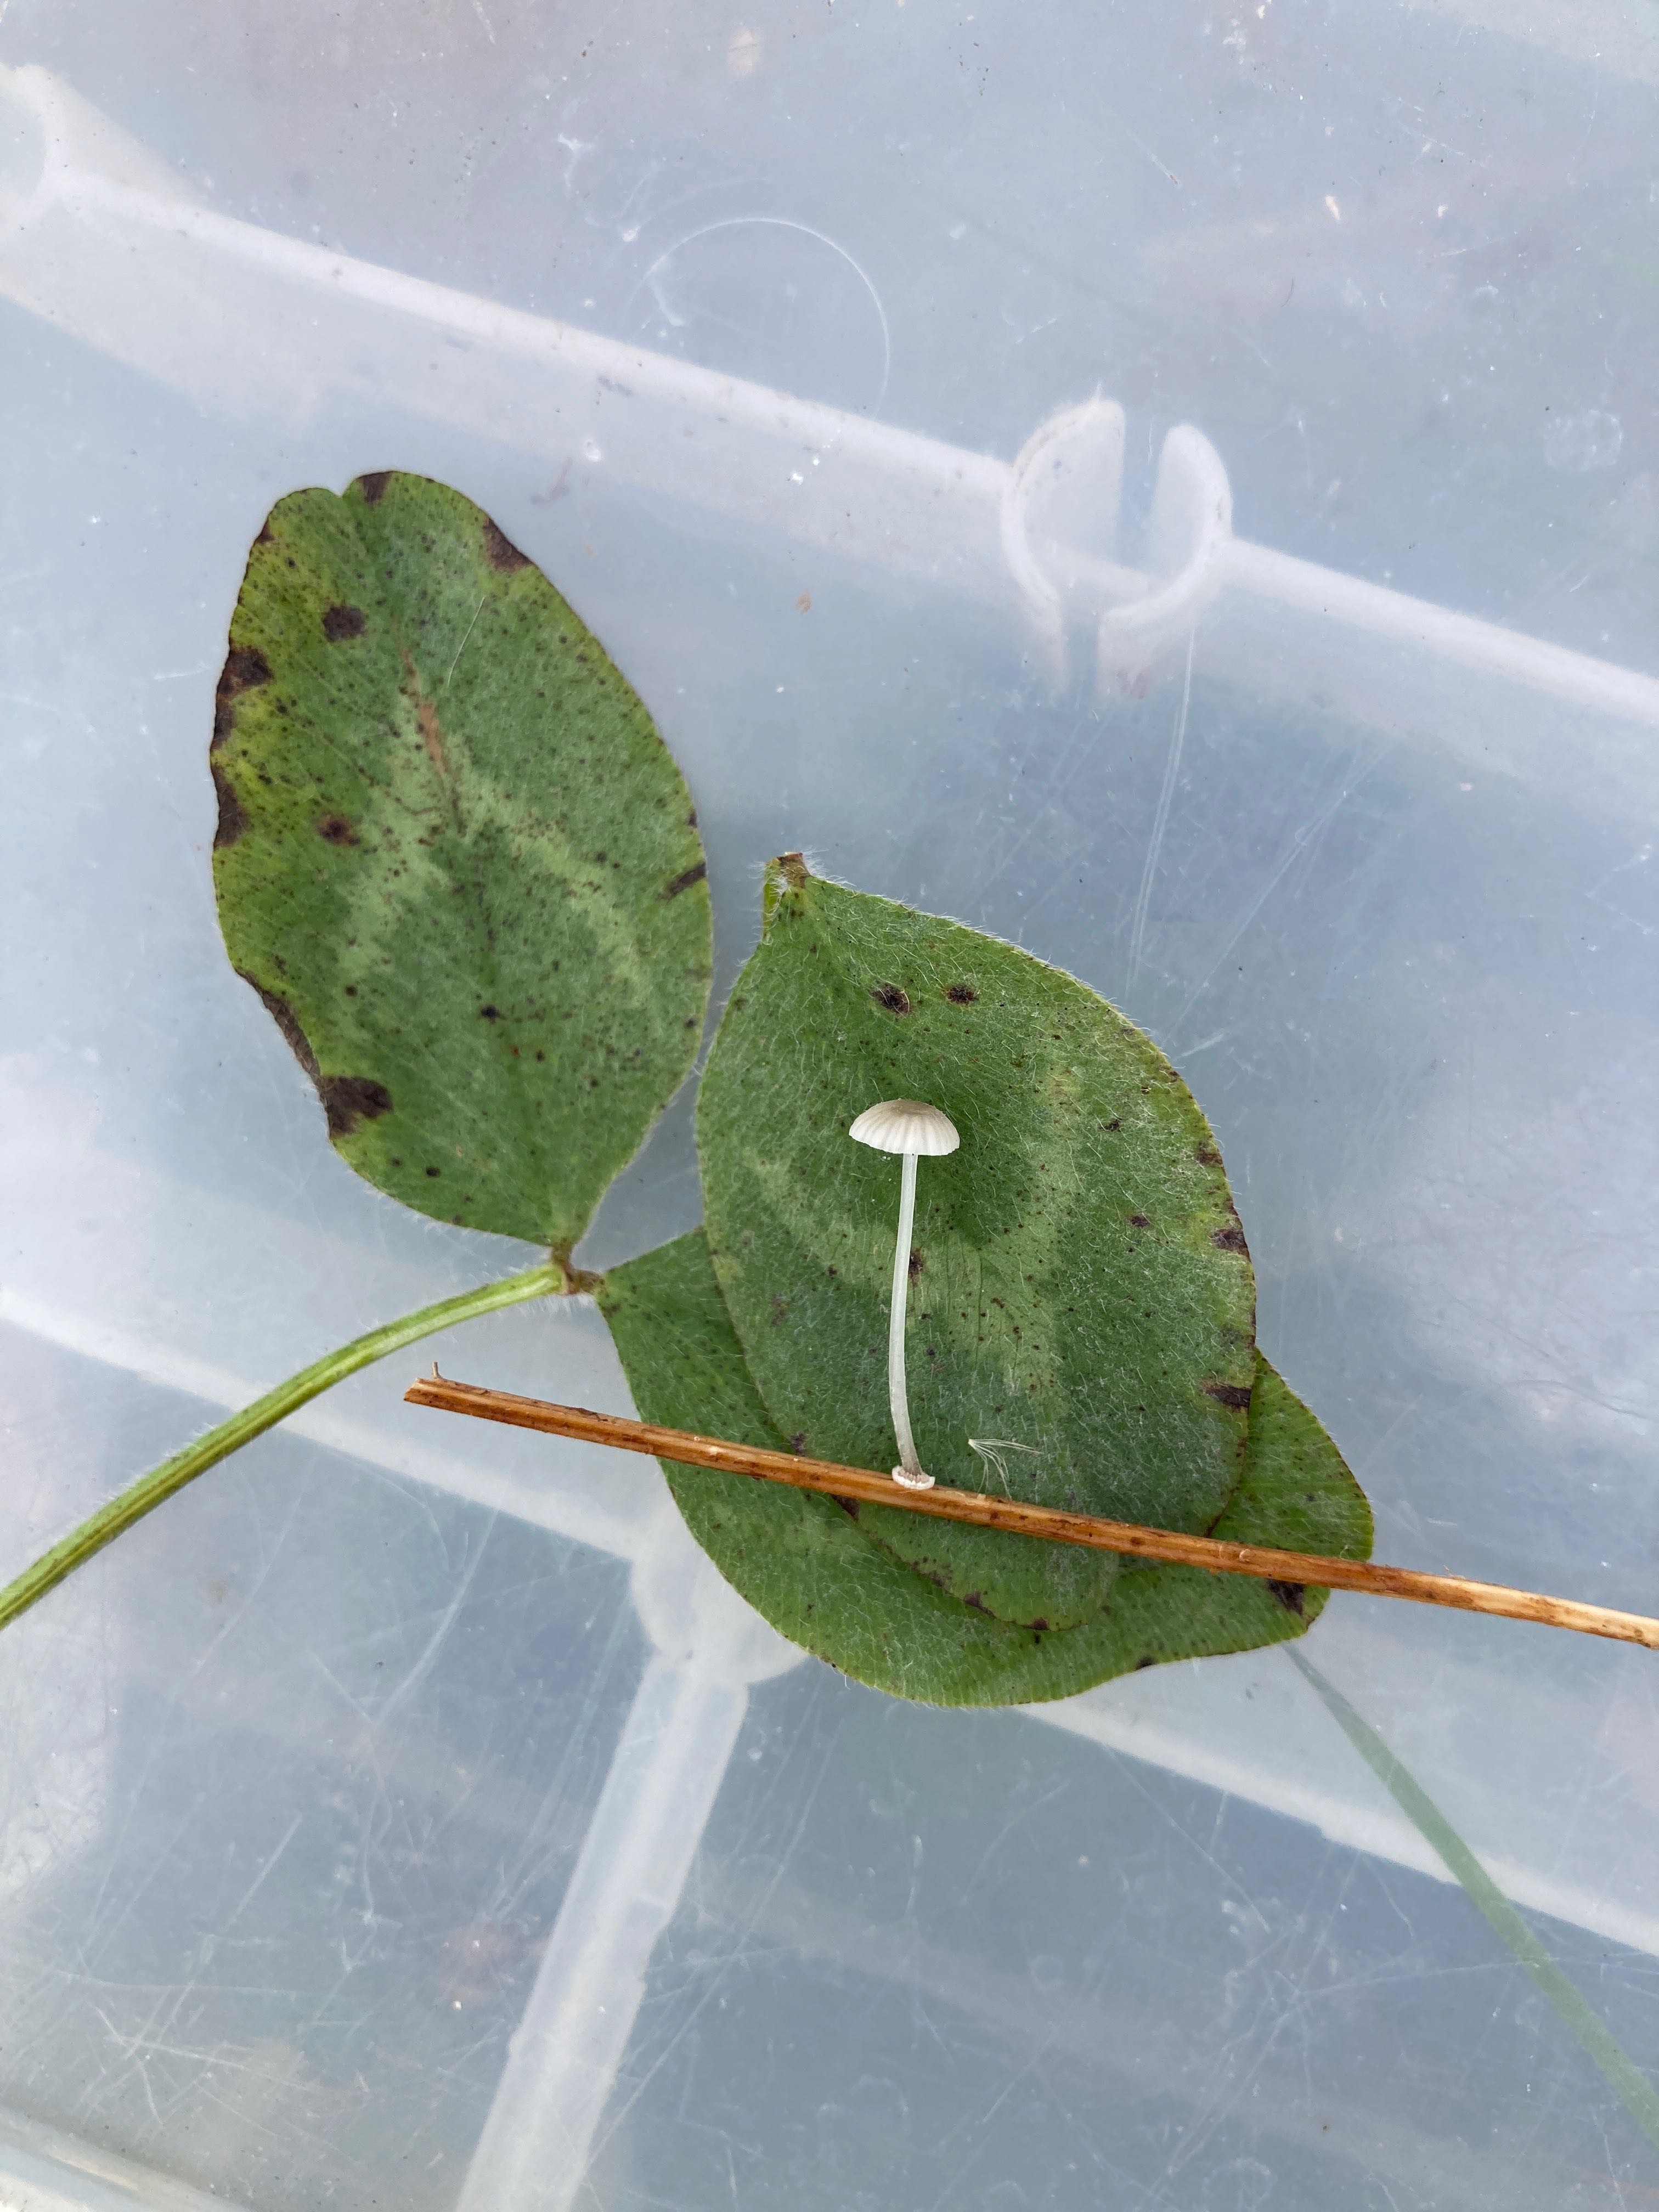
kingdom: Fungi
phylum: Basidiomycota
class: Agaricomycetes
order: Agaricales
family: Mycenaceae
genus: Mycena
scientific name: Mycena stylobates
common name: fureskivet huesvamp
